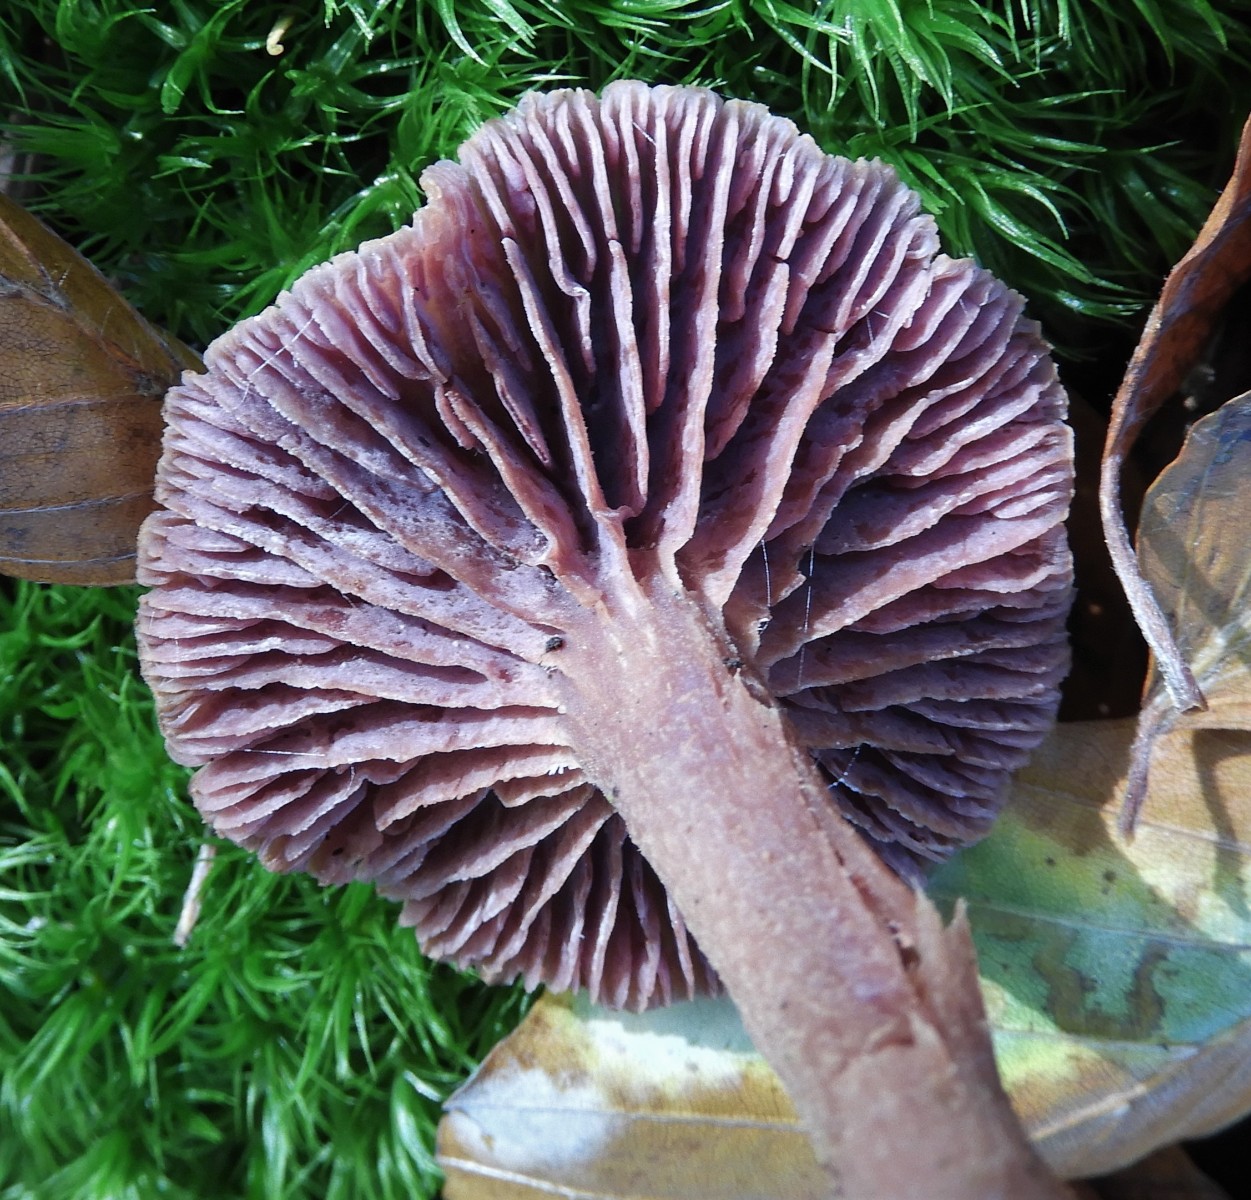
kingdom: Fungi
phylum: Basidiomycota
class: Agaricomycetes
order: Agaricales
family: Hydnangiaceae
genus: Laccaria
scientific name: Laccaria amethystina
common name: violet ametysthat
